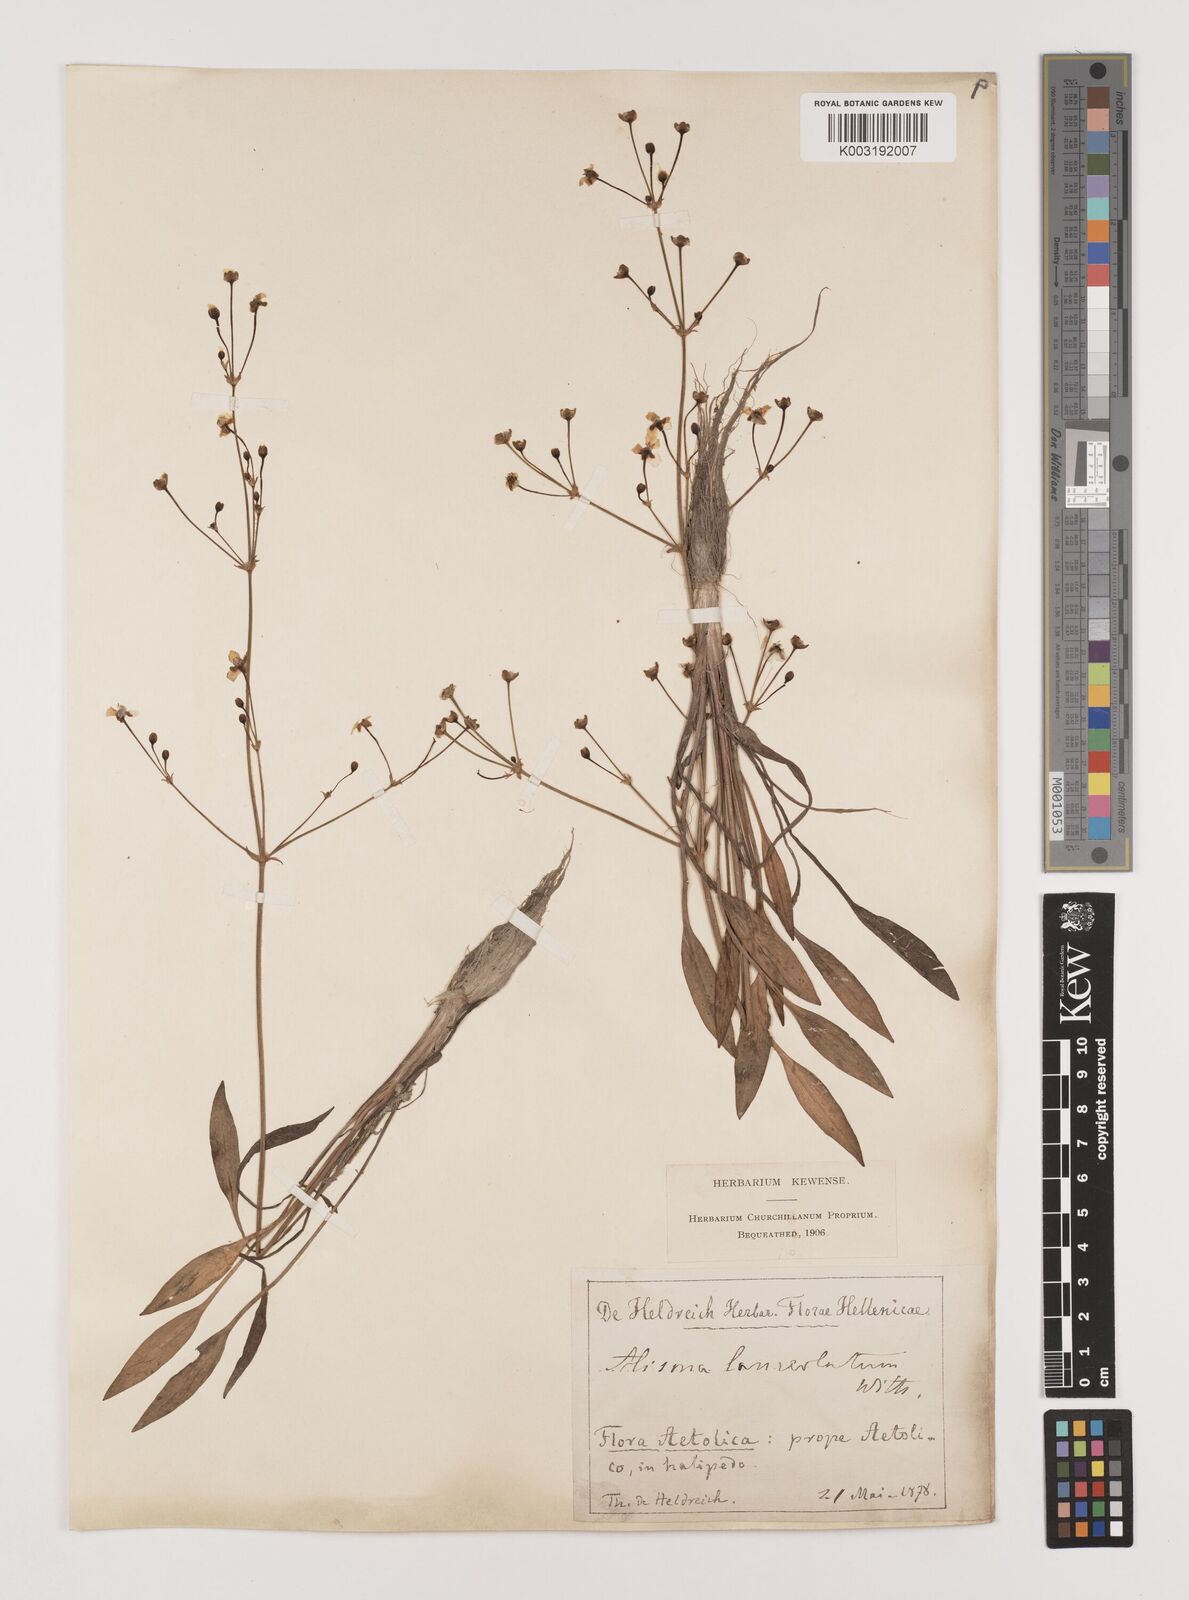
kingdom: Plantae
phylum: Tracheophyta
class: Liliopsida
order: Alismatales
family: Alismataceae
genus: Alisma
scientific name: Alisma lanceolatum
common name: Narrow-leaved water-plantain
